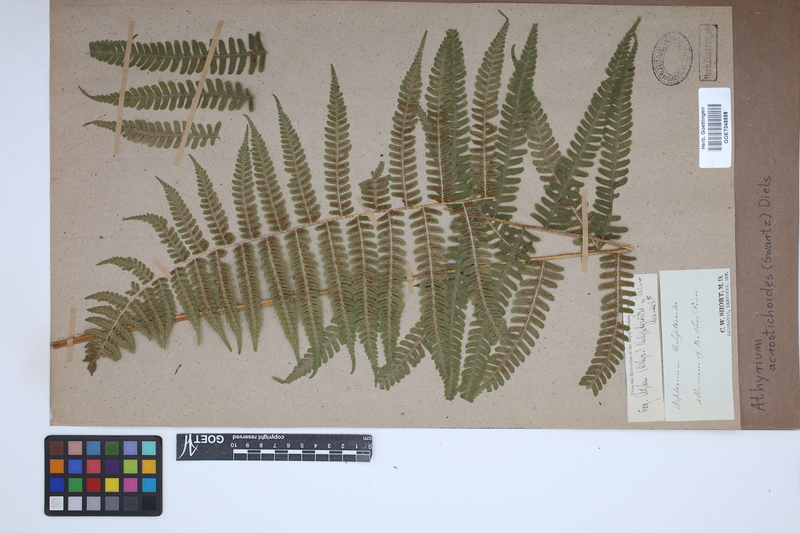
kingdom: Plantae
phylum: Tracheophyta
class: Polypodiopsida
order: Polypodiales
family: Athyriaceae
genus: Deparia
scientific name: Deparia acrostichoides
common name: Silver false spleenwort
